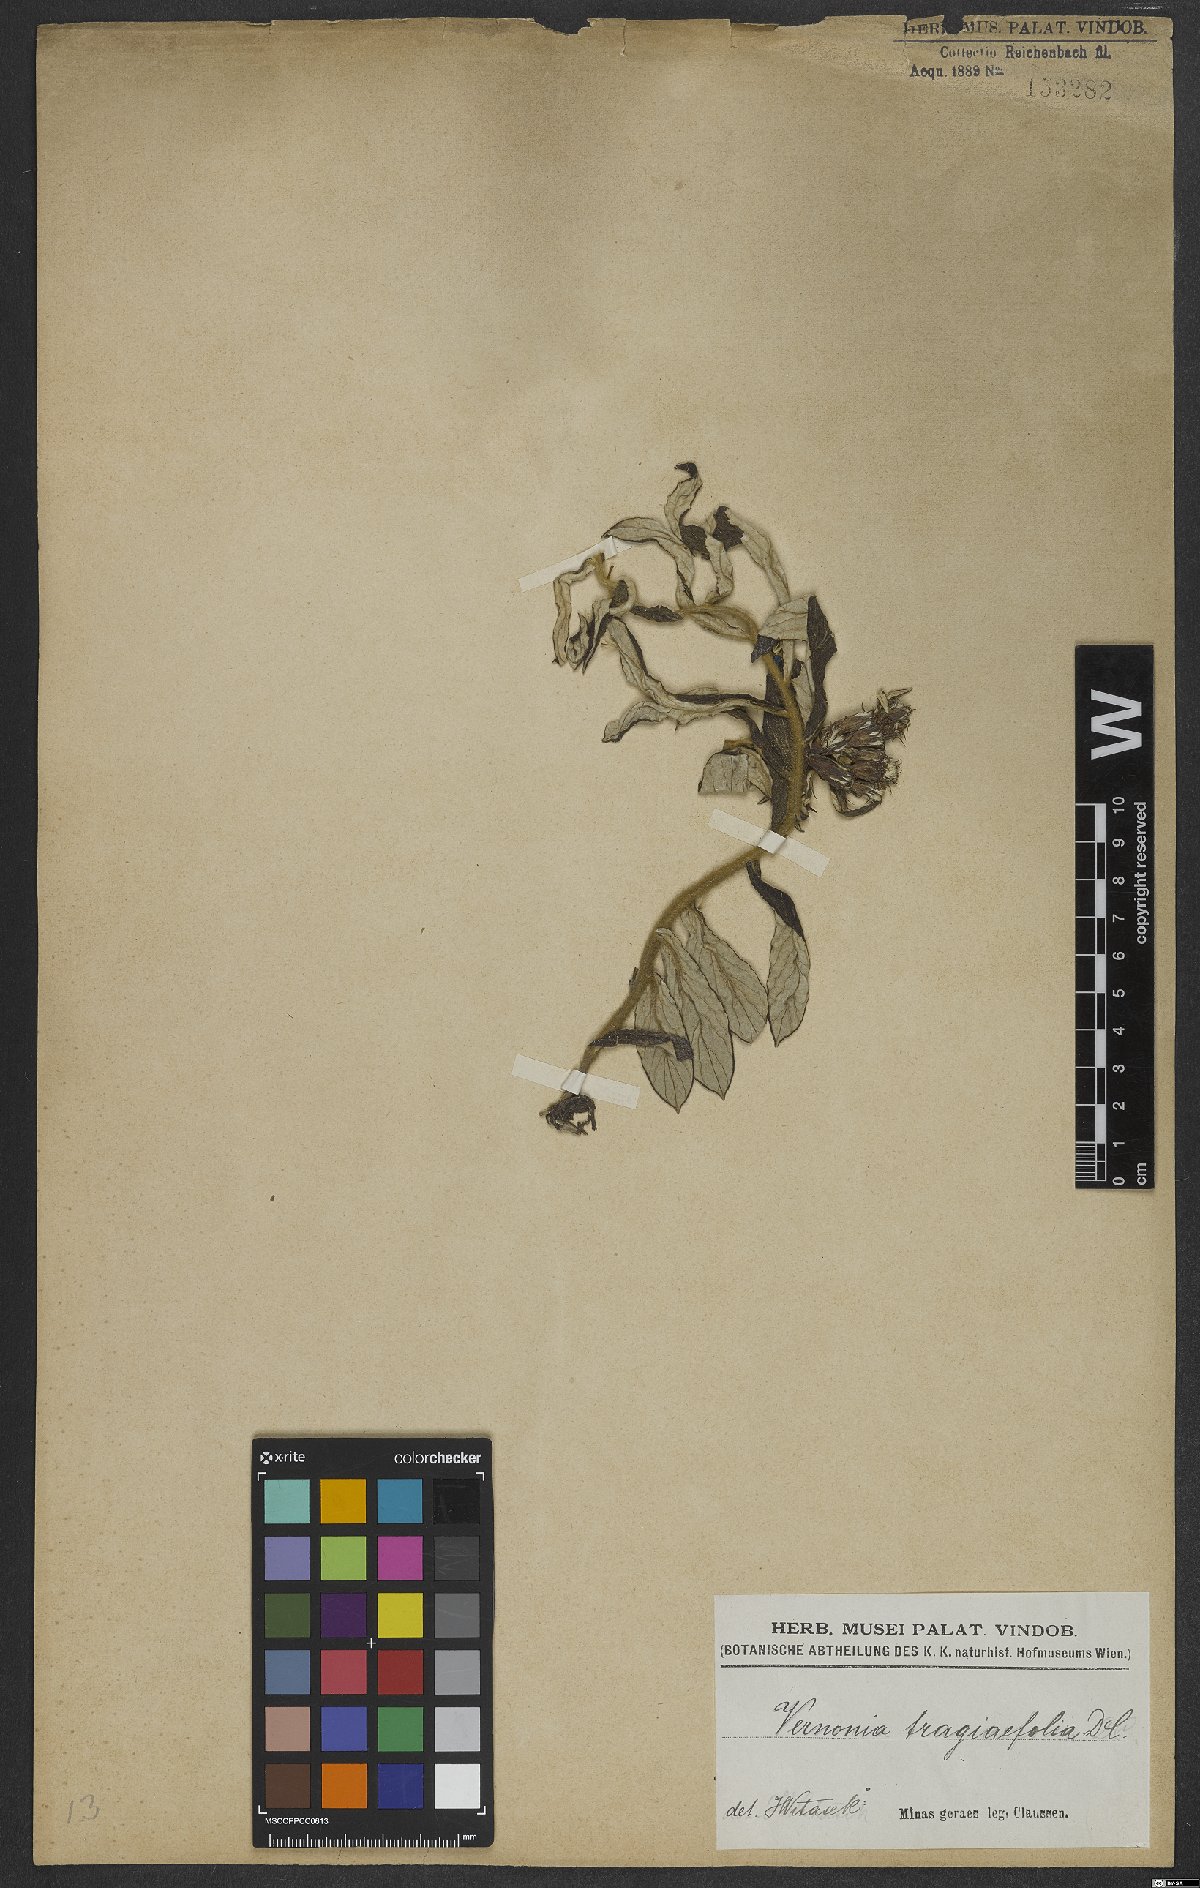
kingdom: Plantae
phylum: Tracheophyta
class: Magnoliopsida
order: Asterales
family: Asteraceae
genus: Stenocephalum
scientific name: Stenocephalum tragiifolium
